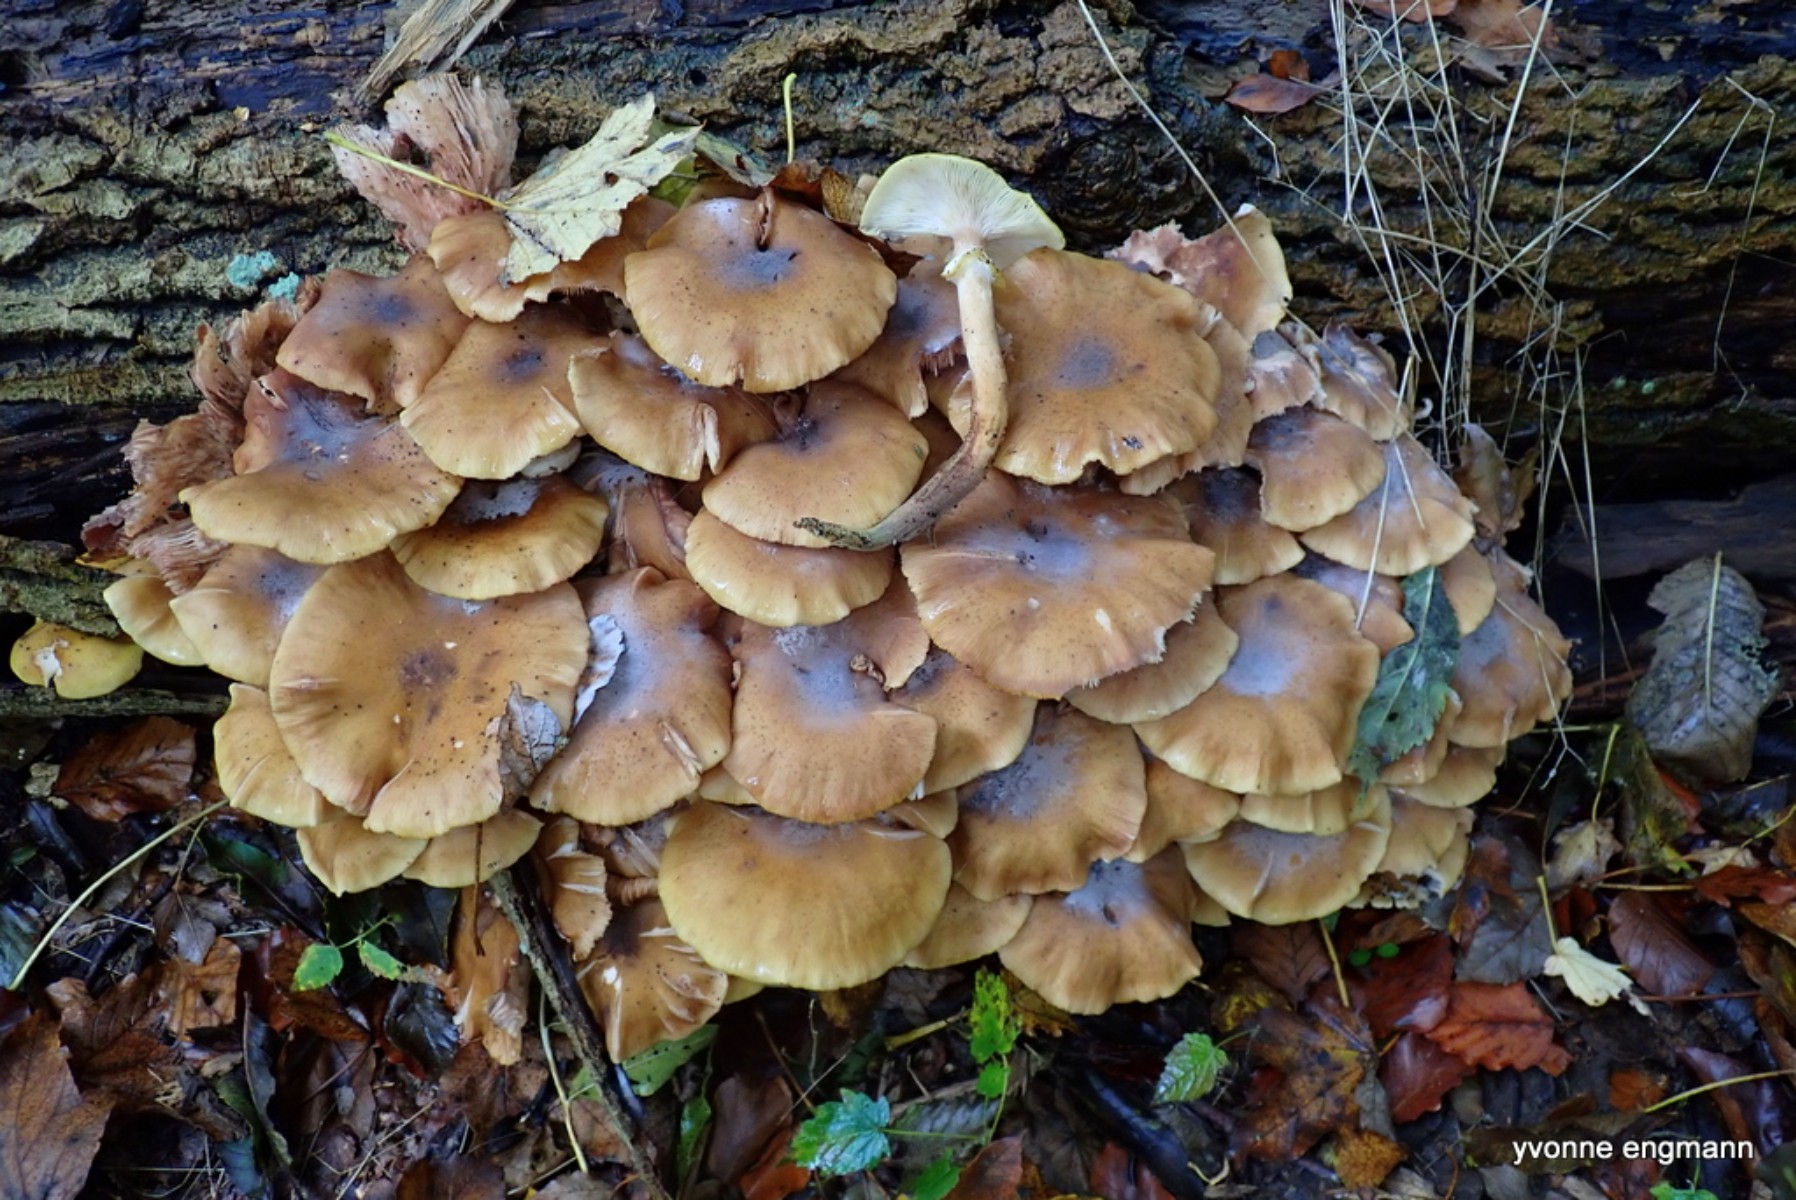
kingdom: Fungi
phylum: Basidiomycota
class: Agaricomycetes
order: Agaricales
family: Physalacriaceae
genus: Armillaria
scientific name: Armillaria mellea
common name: ægte honningsvamp
